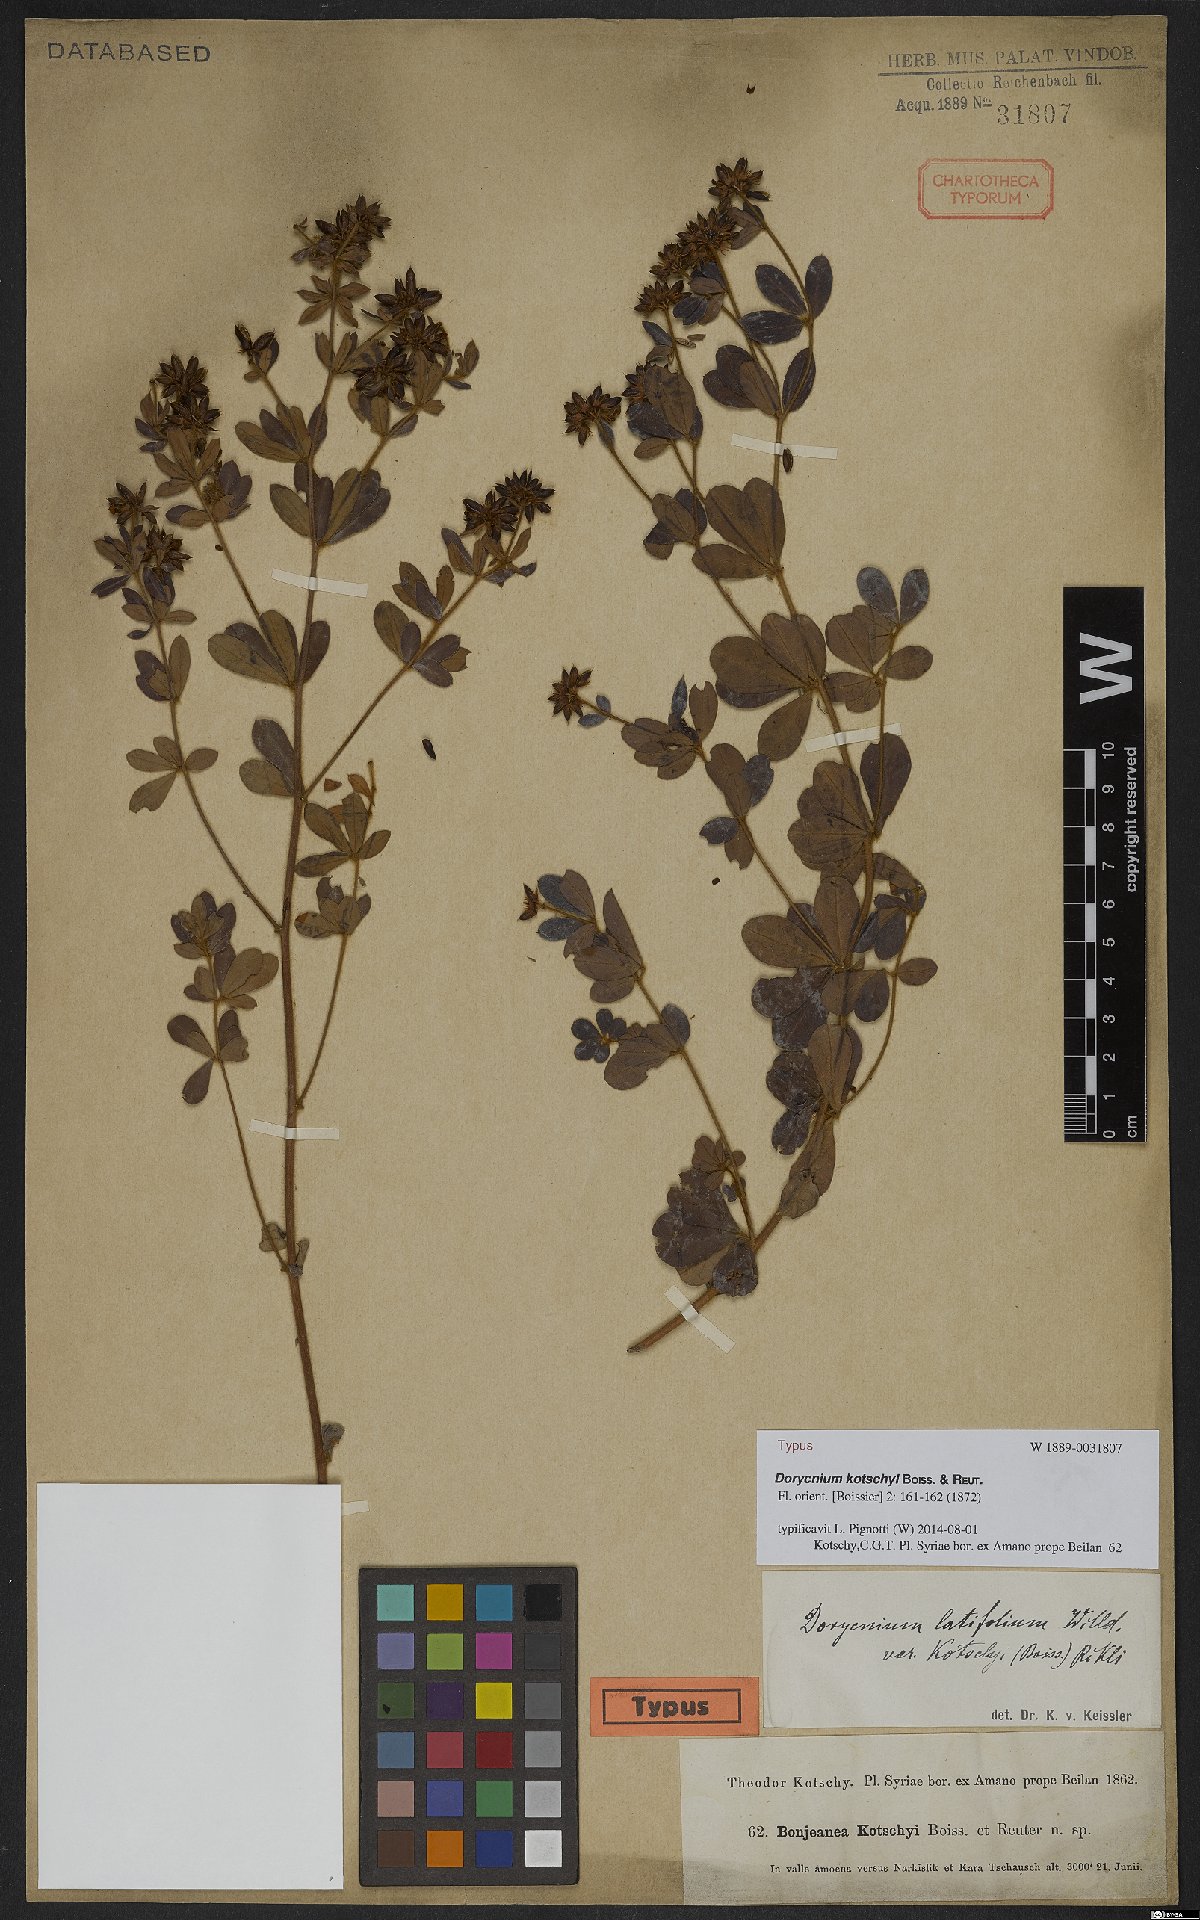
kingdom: Plantae
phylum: Tracheophyta
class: Magnoliopsida
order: Fabales
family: Fabaceae
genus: Lotus
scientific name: Lotus graecus
